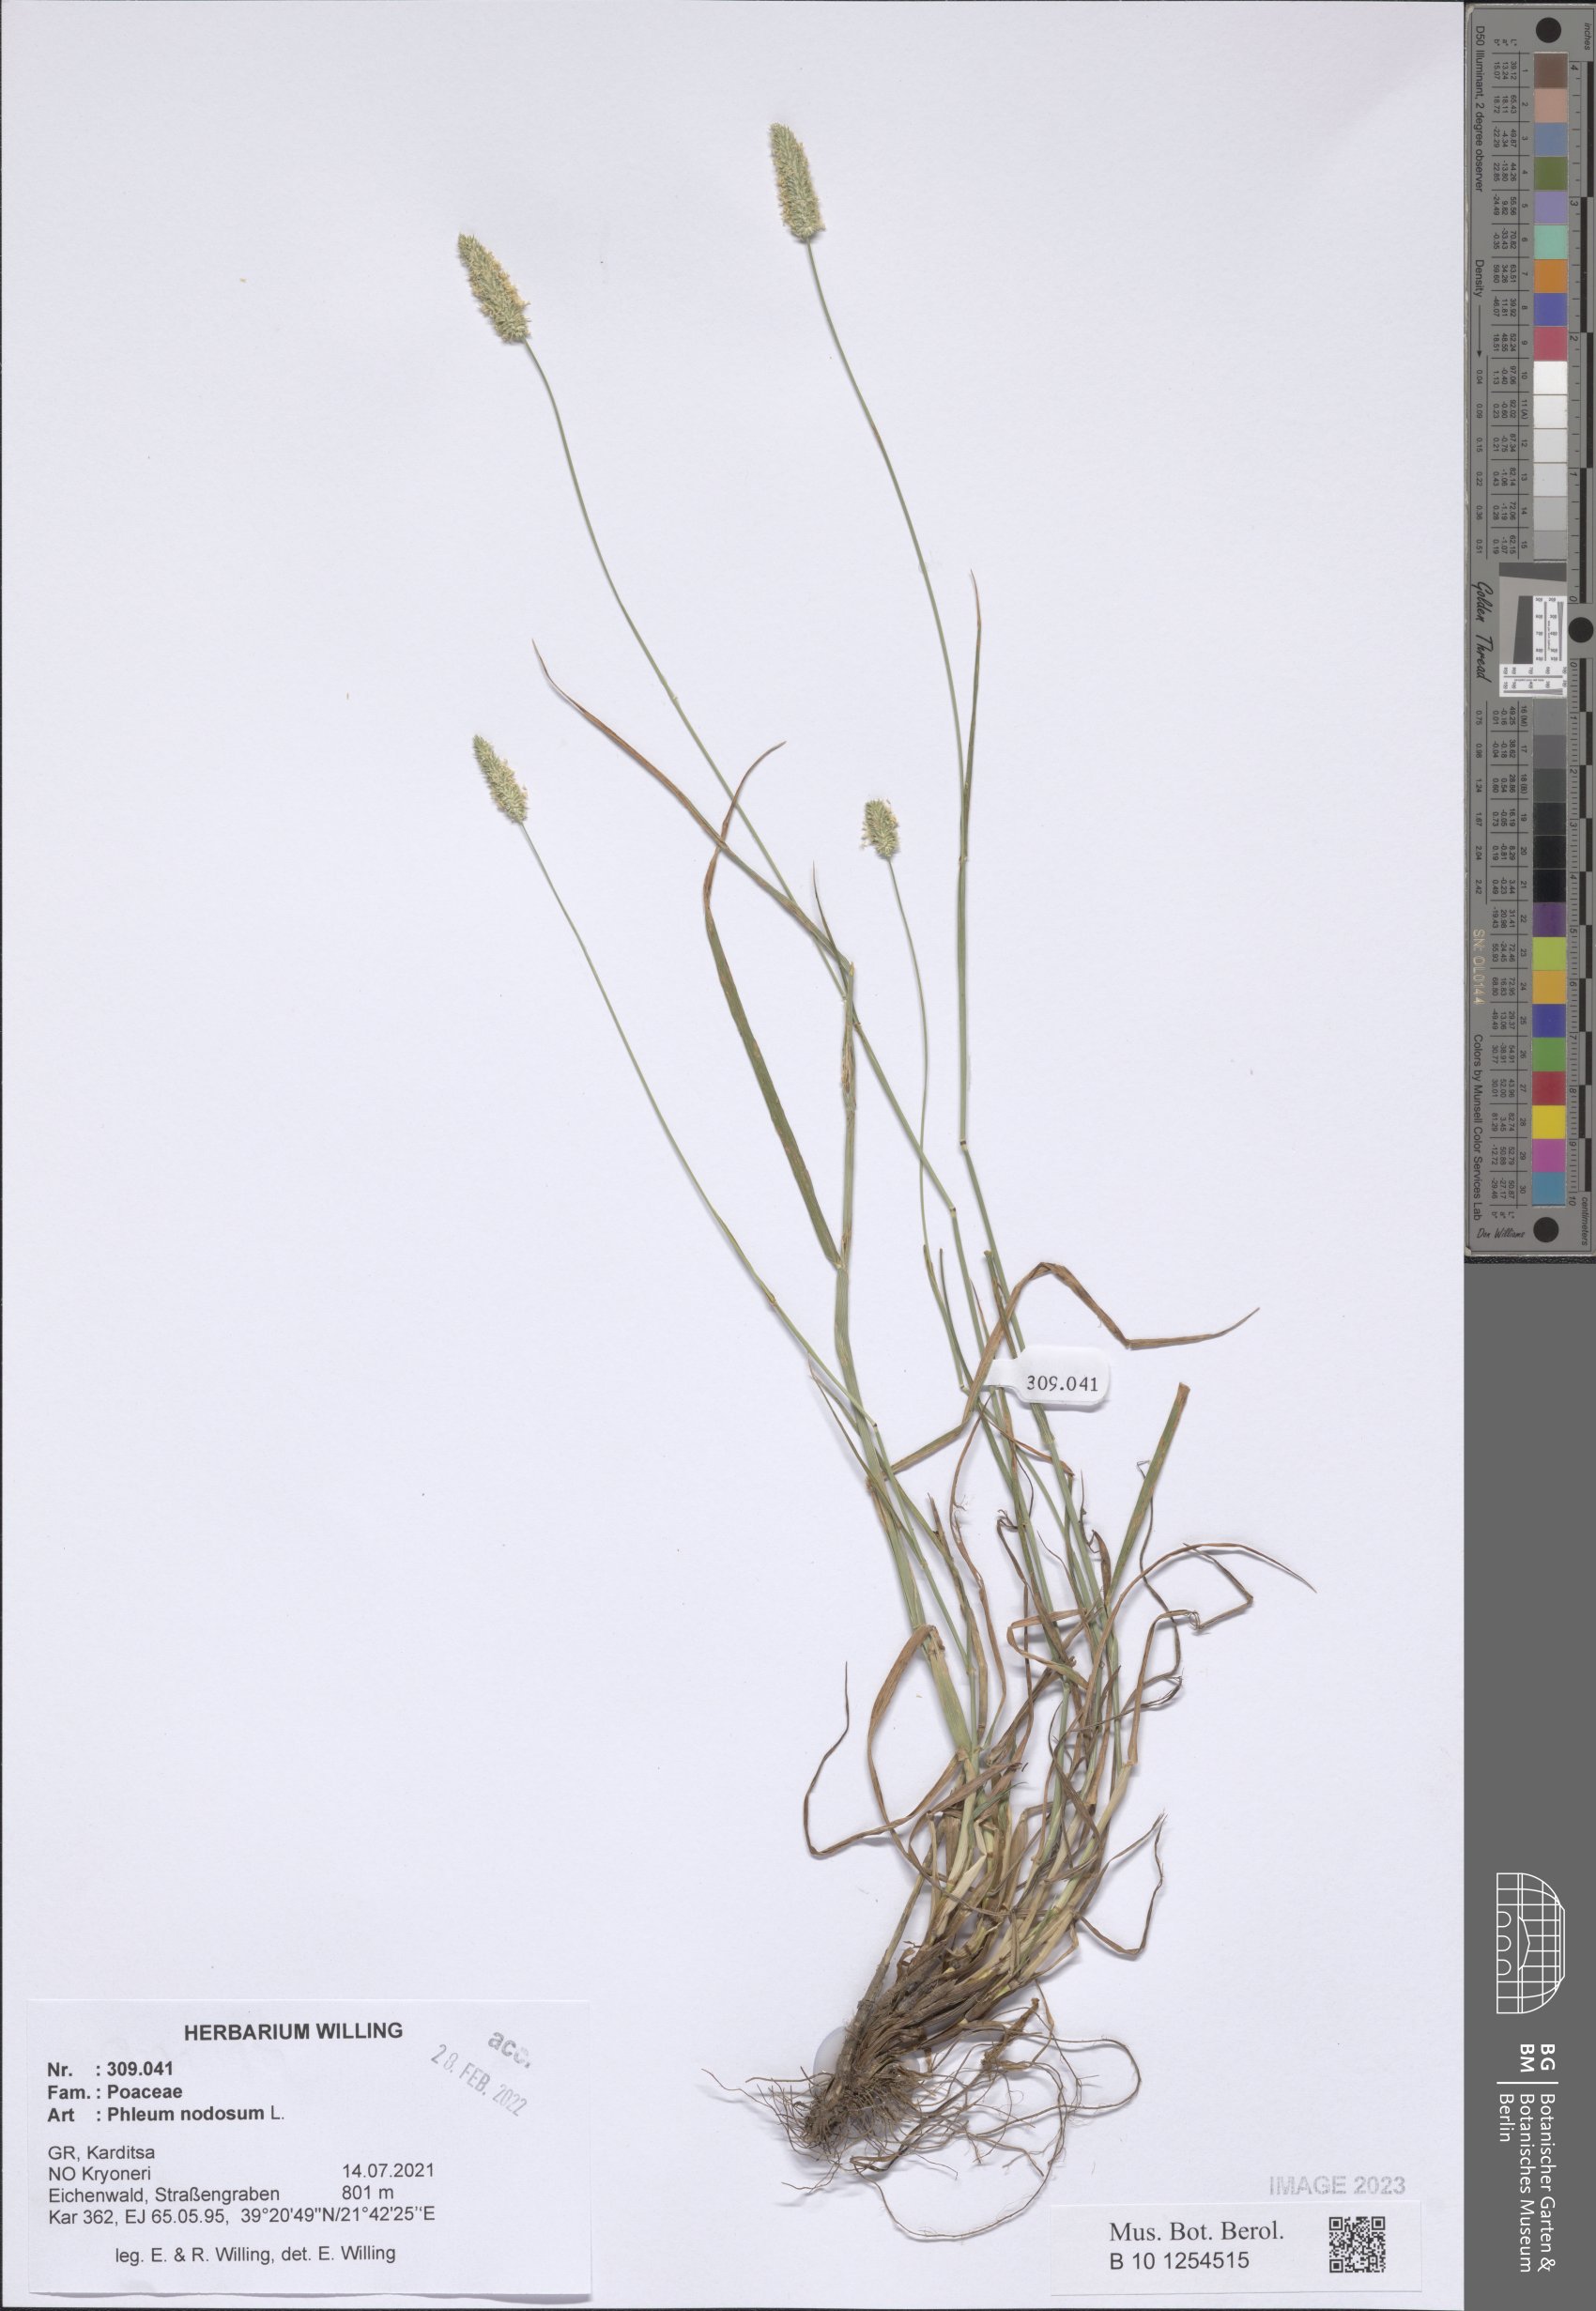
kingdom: Plantae
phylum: Tracheophyta
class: Liliopsida
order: Poales
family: Poaceae
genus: Phleum
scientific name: Phleum pratense
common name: Timothy grass
